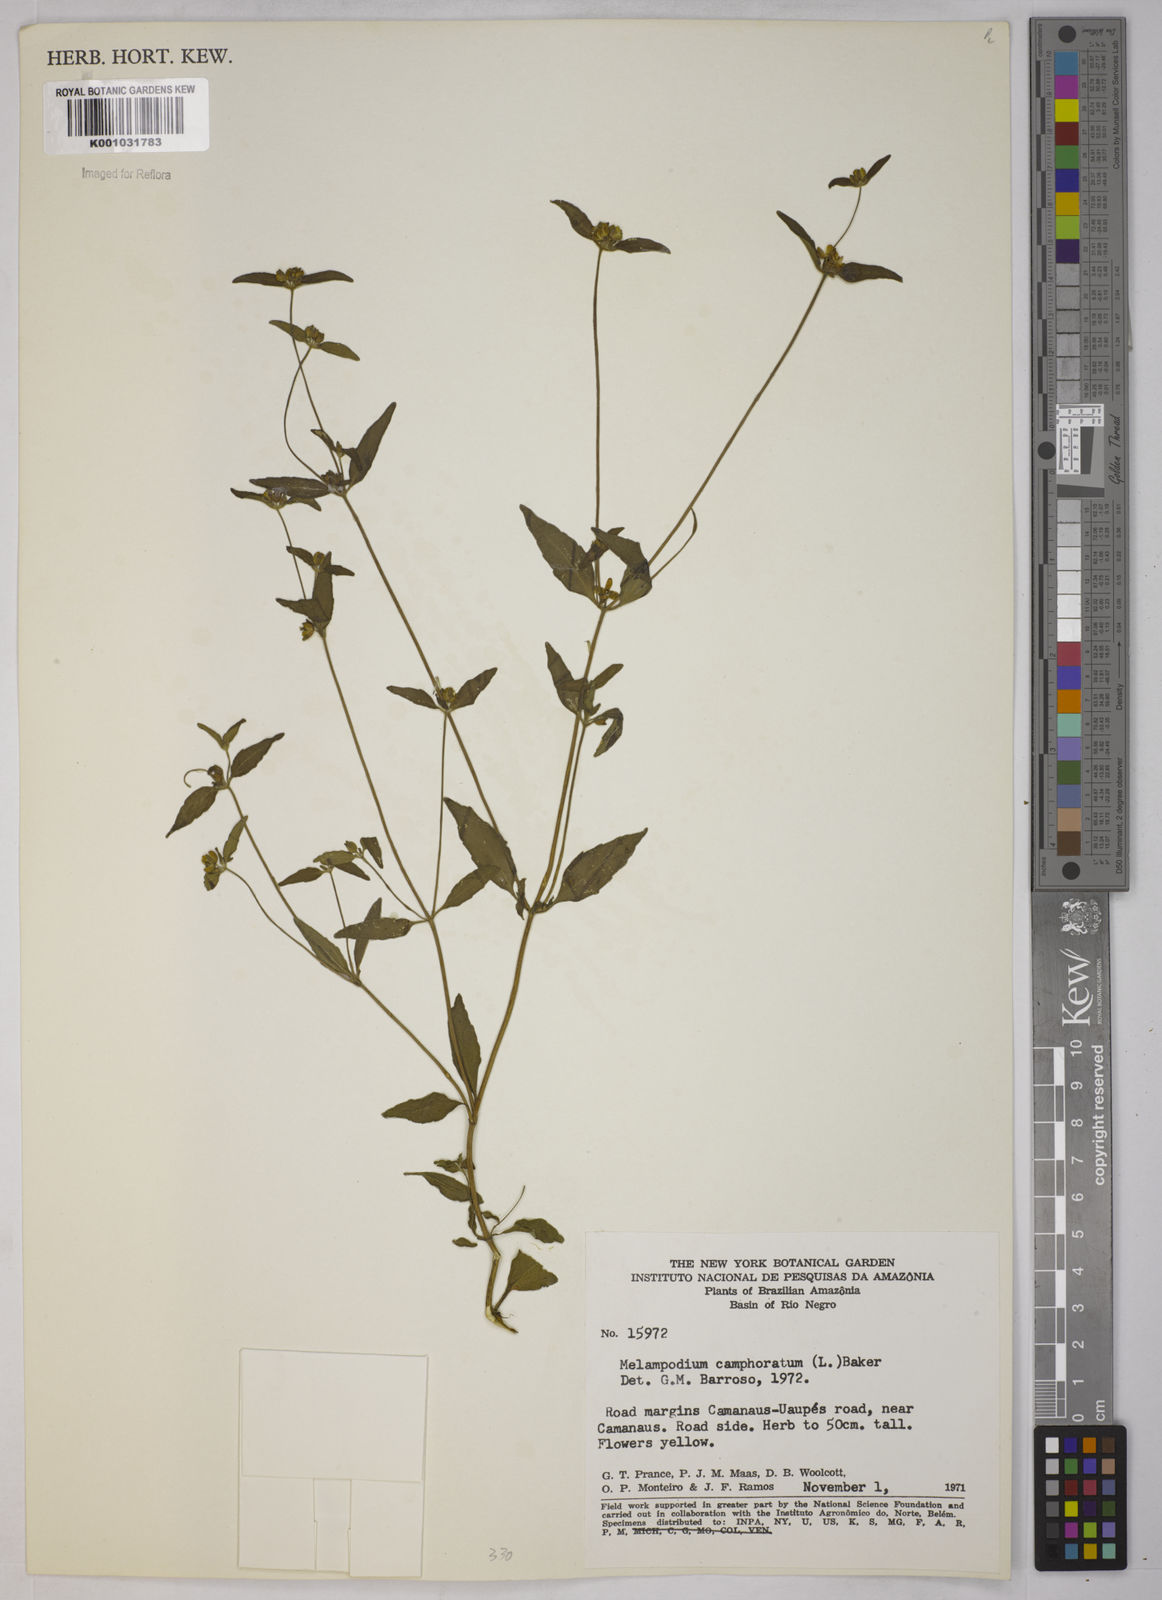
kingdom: Plantae
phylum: Tracheophyta
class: Magnoliopsida
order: Asterales
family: Asteraceae
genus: Unxia
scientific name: Unxia camphorata
